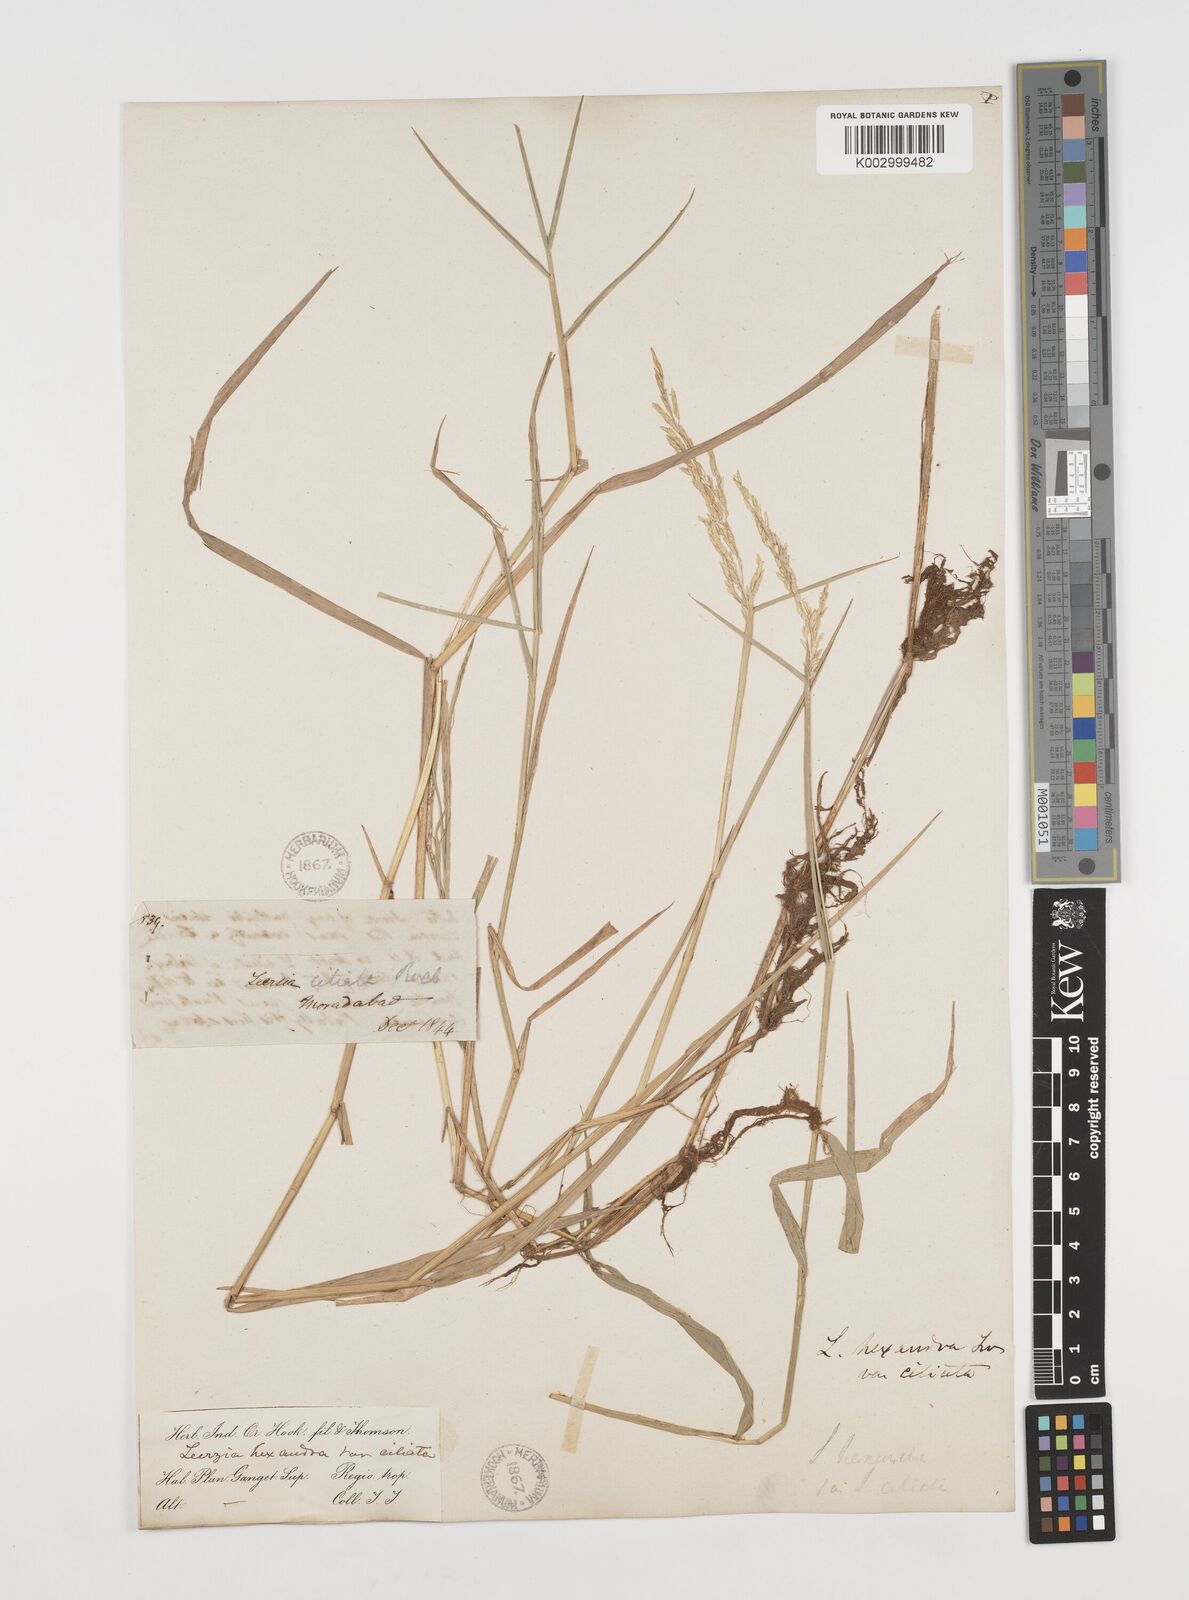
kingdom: Plantae
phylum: Tracheophyta
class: Liliopsida
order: Poales
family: Poaceae
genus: Leersia
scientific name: Leersia hexandra
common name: Southern cut grass
